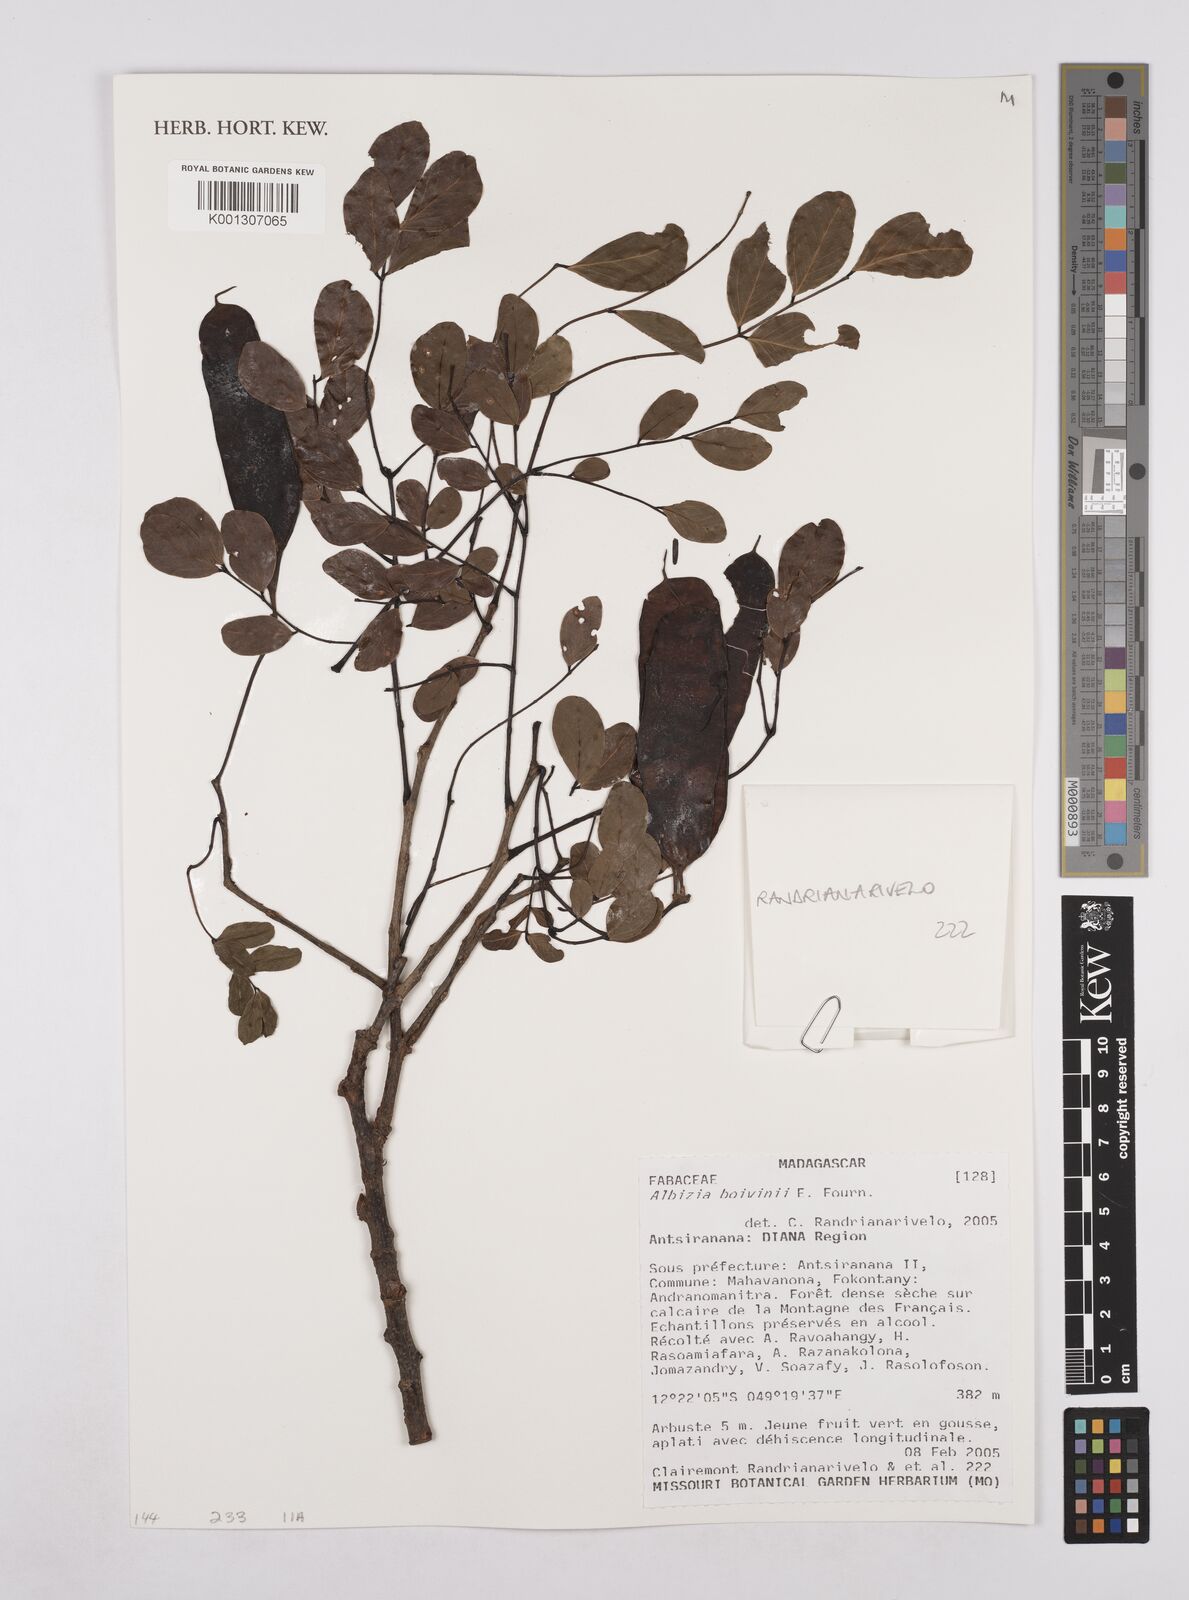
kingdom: Plantae
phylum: Tracheophyta
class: Magnoliopsida
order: Fabales
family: Fabaceae
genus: Albizia
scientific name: Albizia bernieri
